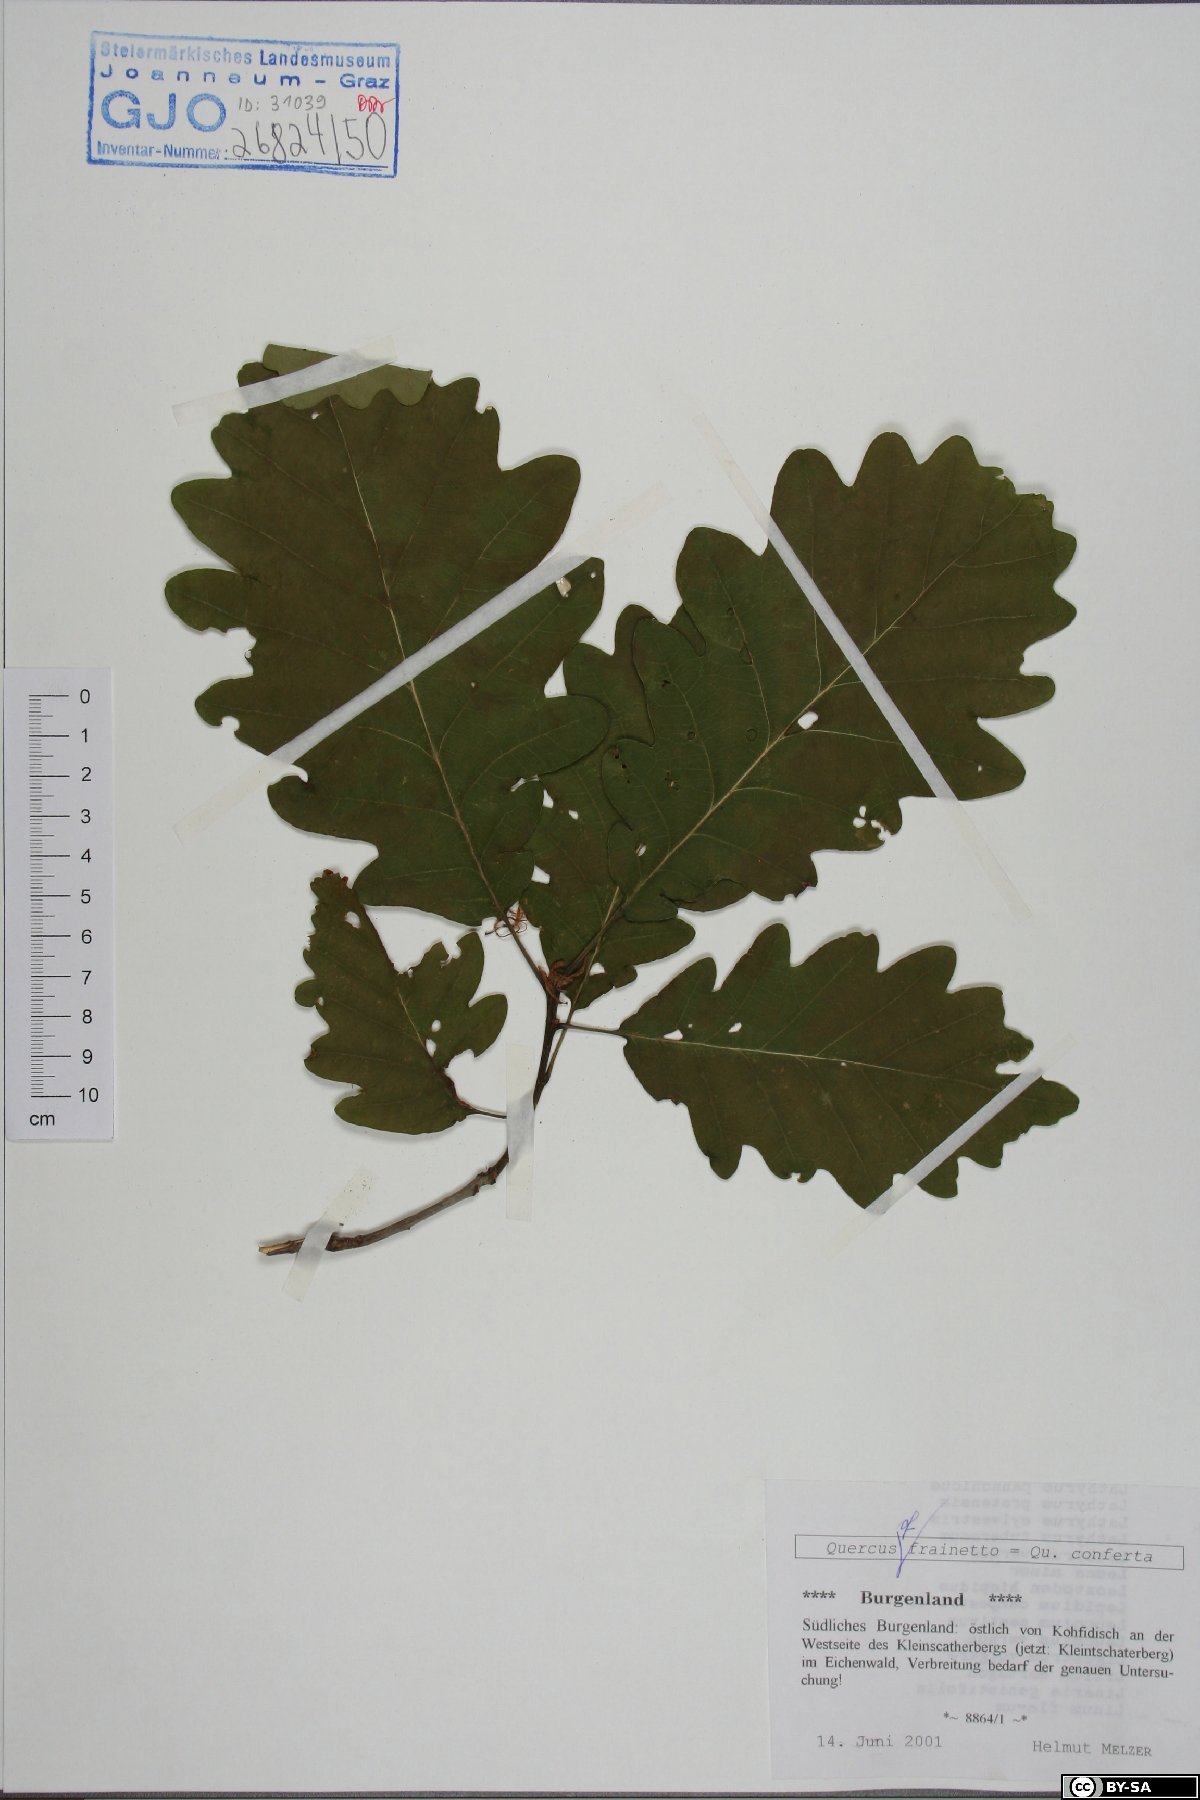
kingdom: Fungi
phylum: Basidiomycota
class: Agaricomycetes
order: Agaricales
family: Marasmiaceae
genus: Henningsomyces
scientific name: Henningsomyces candidus
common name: White tubelet
